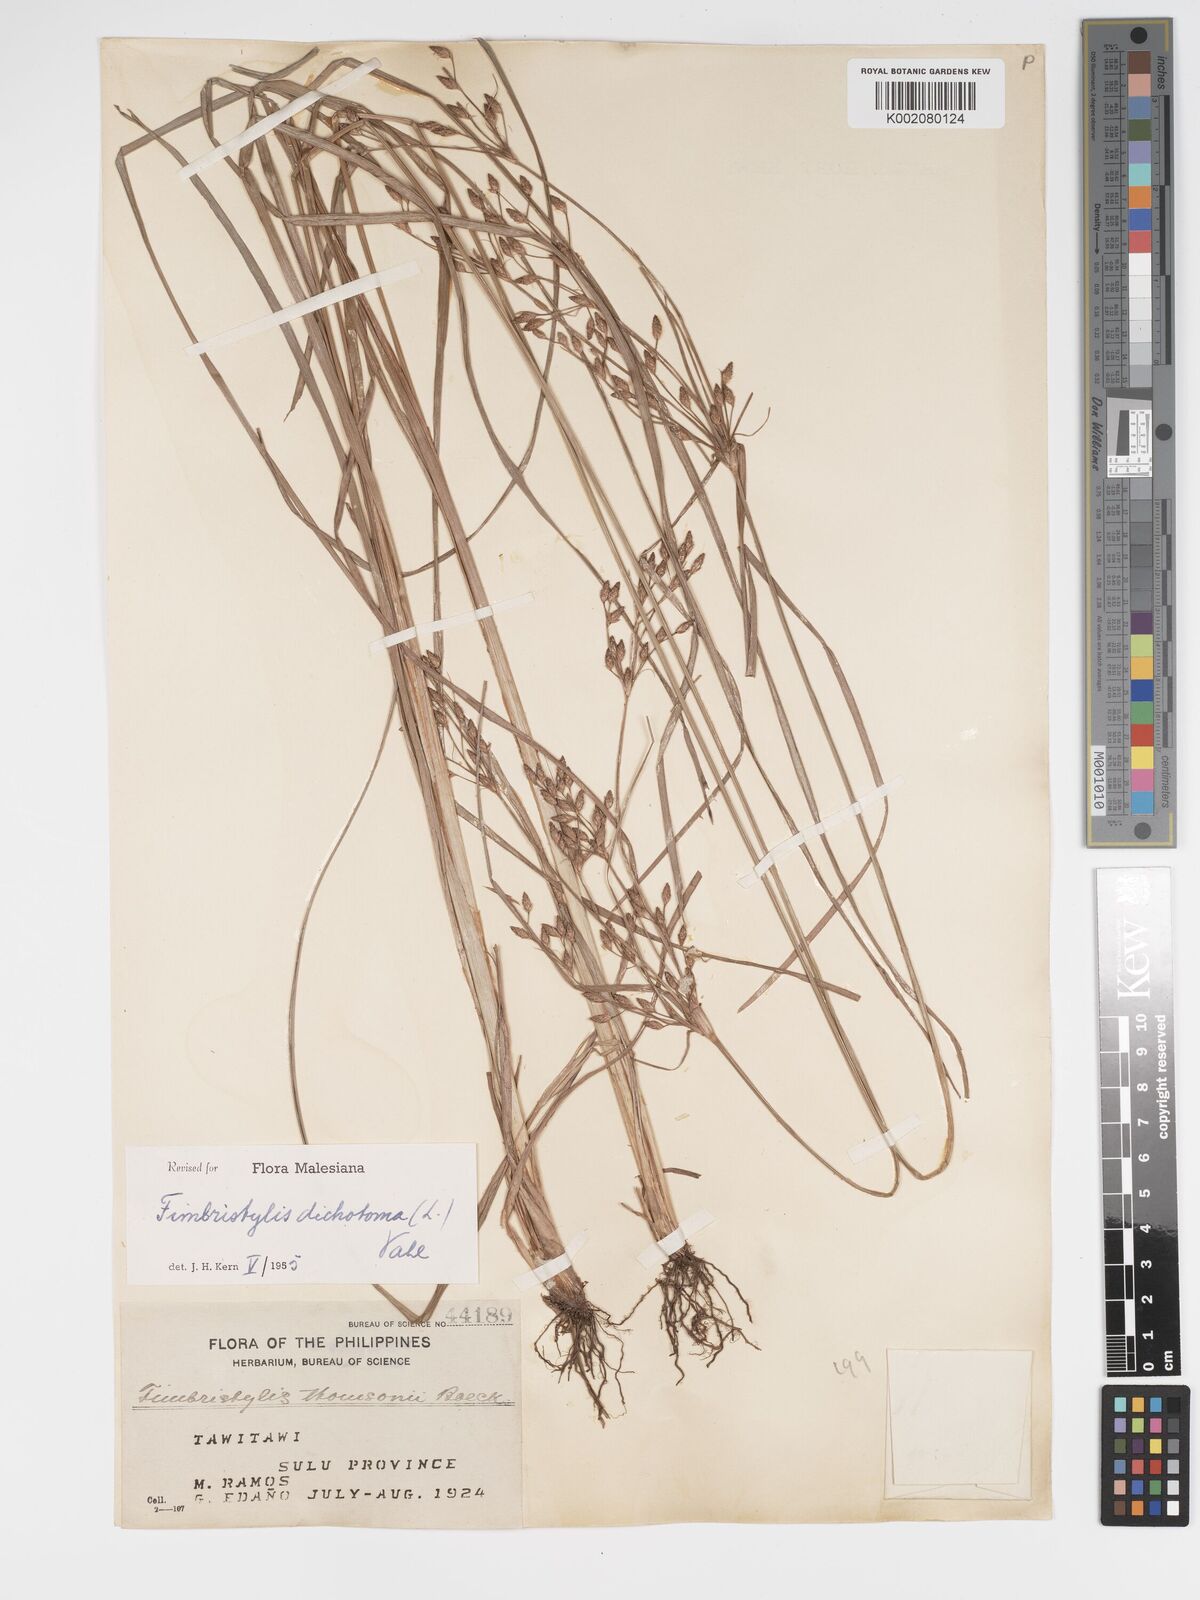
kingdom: Plantae
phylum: Tracheophyta
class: Liliopsida
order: Poales
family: Cyperaceae
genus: Fimbristylis
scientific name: Fimbristylis dichotoma
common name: Forked fimbry
